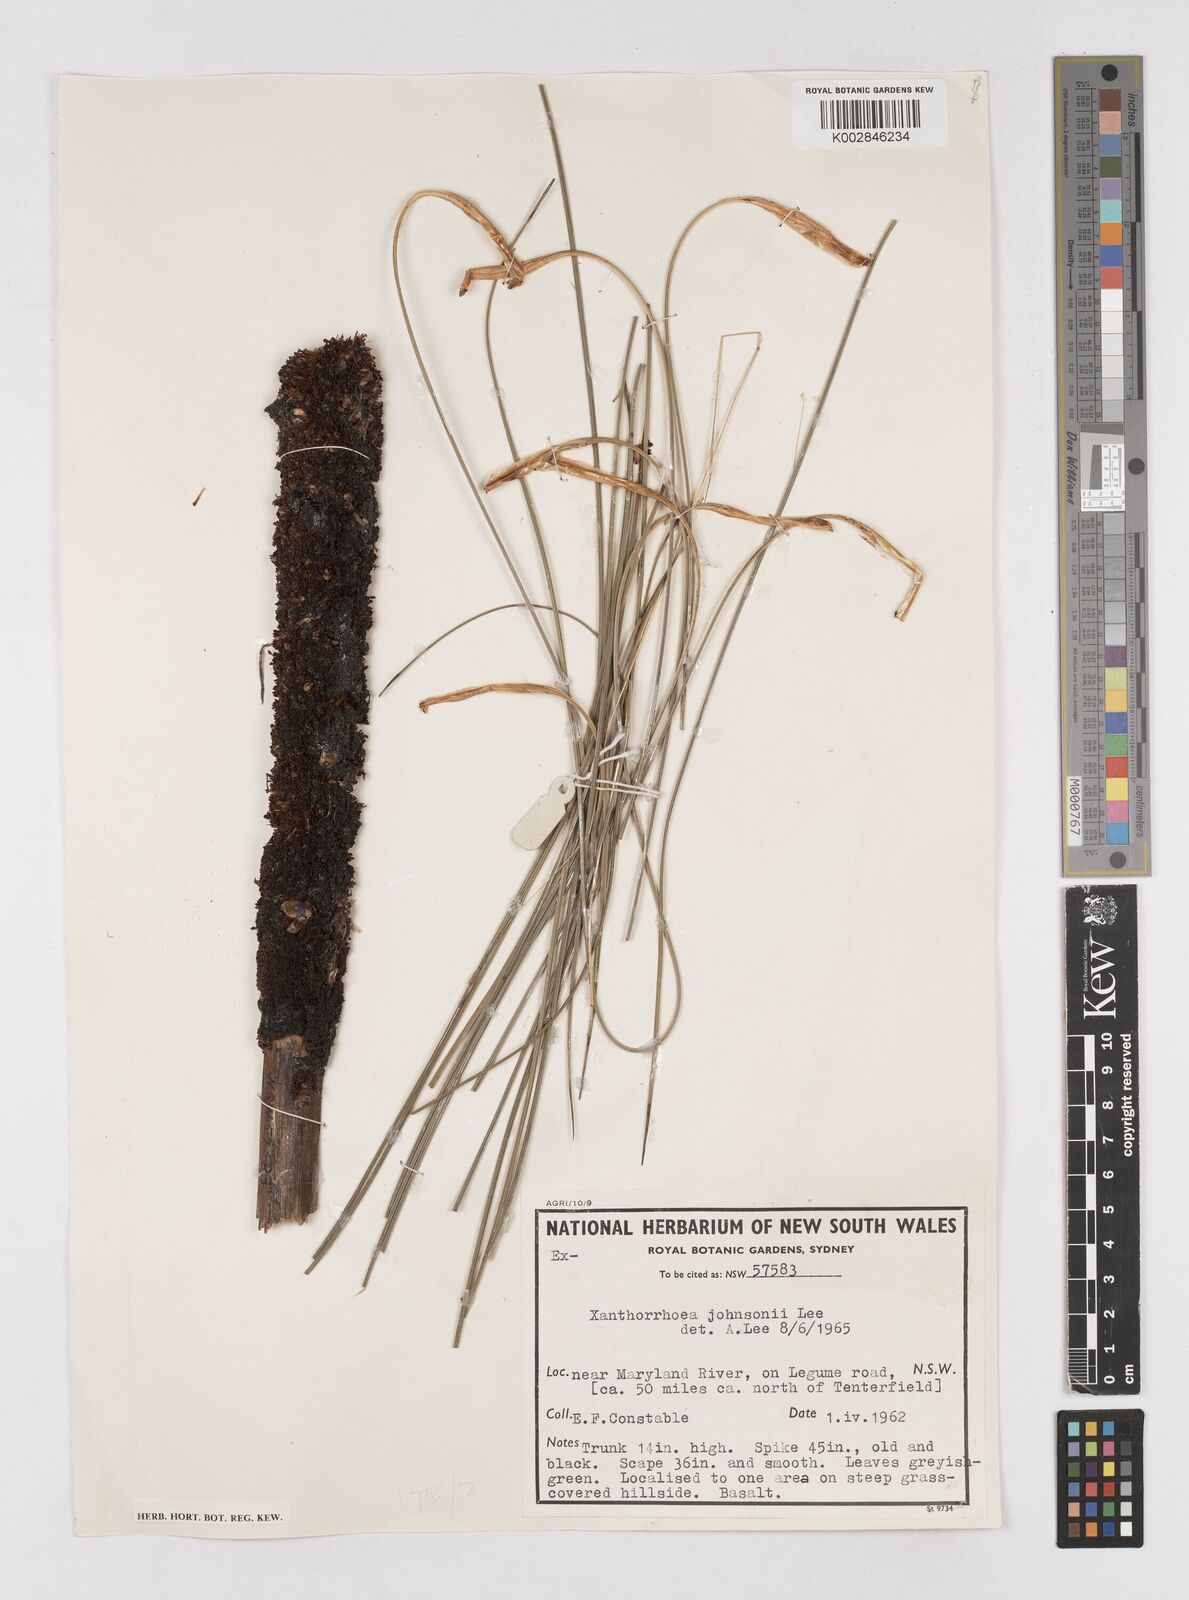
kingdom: Plantae
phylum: Tracheophyta
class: Liliopsida
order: Asparagales
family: Asphodelaceae
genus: Xanthorrhoea
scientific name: Xanthorrhoea johnsonii
